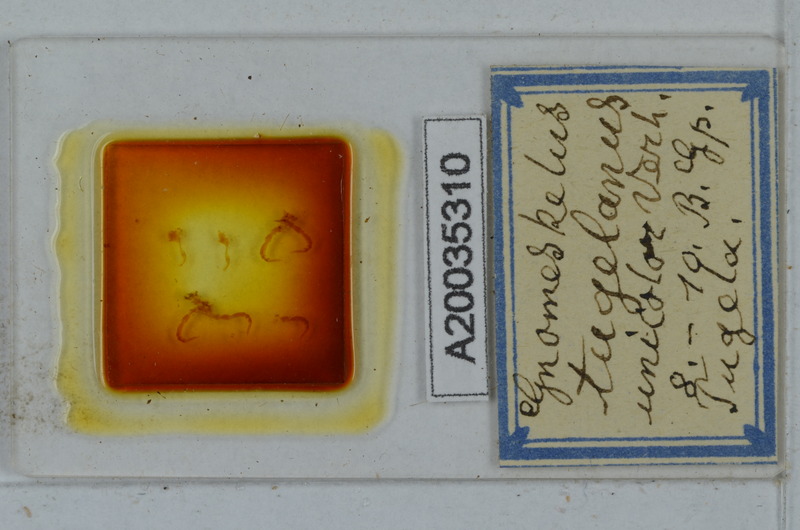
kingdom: Animalia
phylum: Arthropoda
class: Diplopoda
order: Polydesmida
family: Dalodesmidae
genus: Gnomeskelus
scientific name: Gnomeskelus tugelanus
